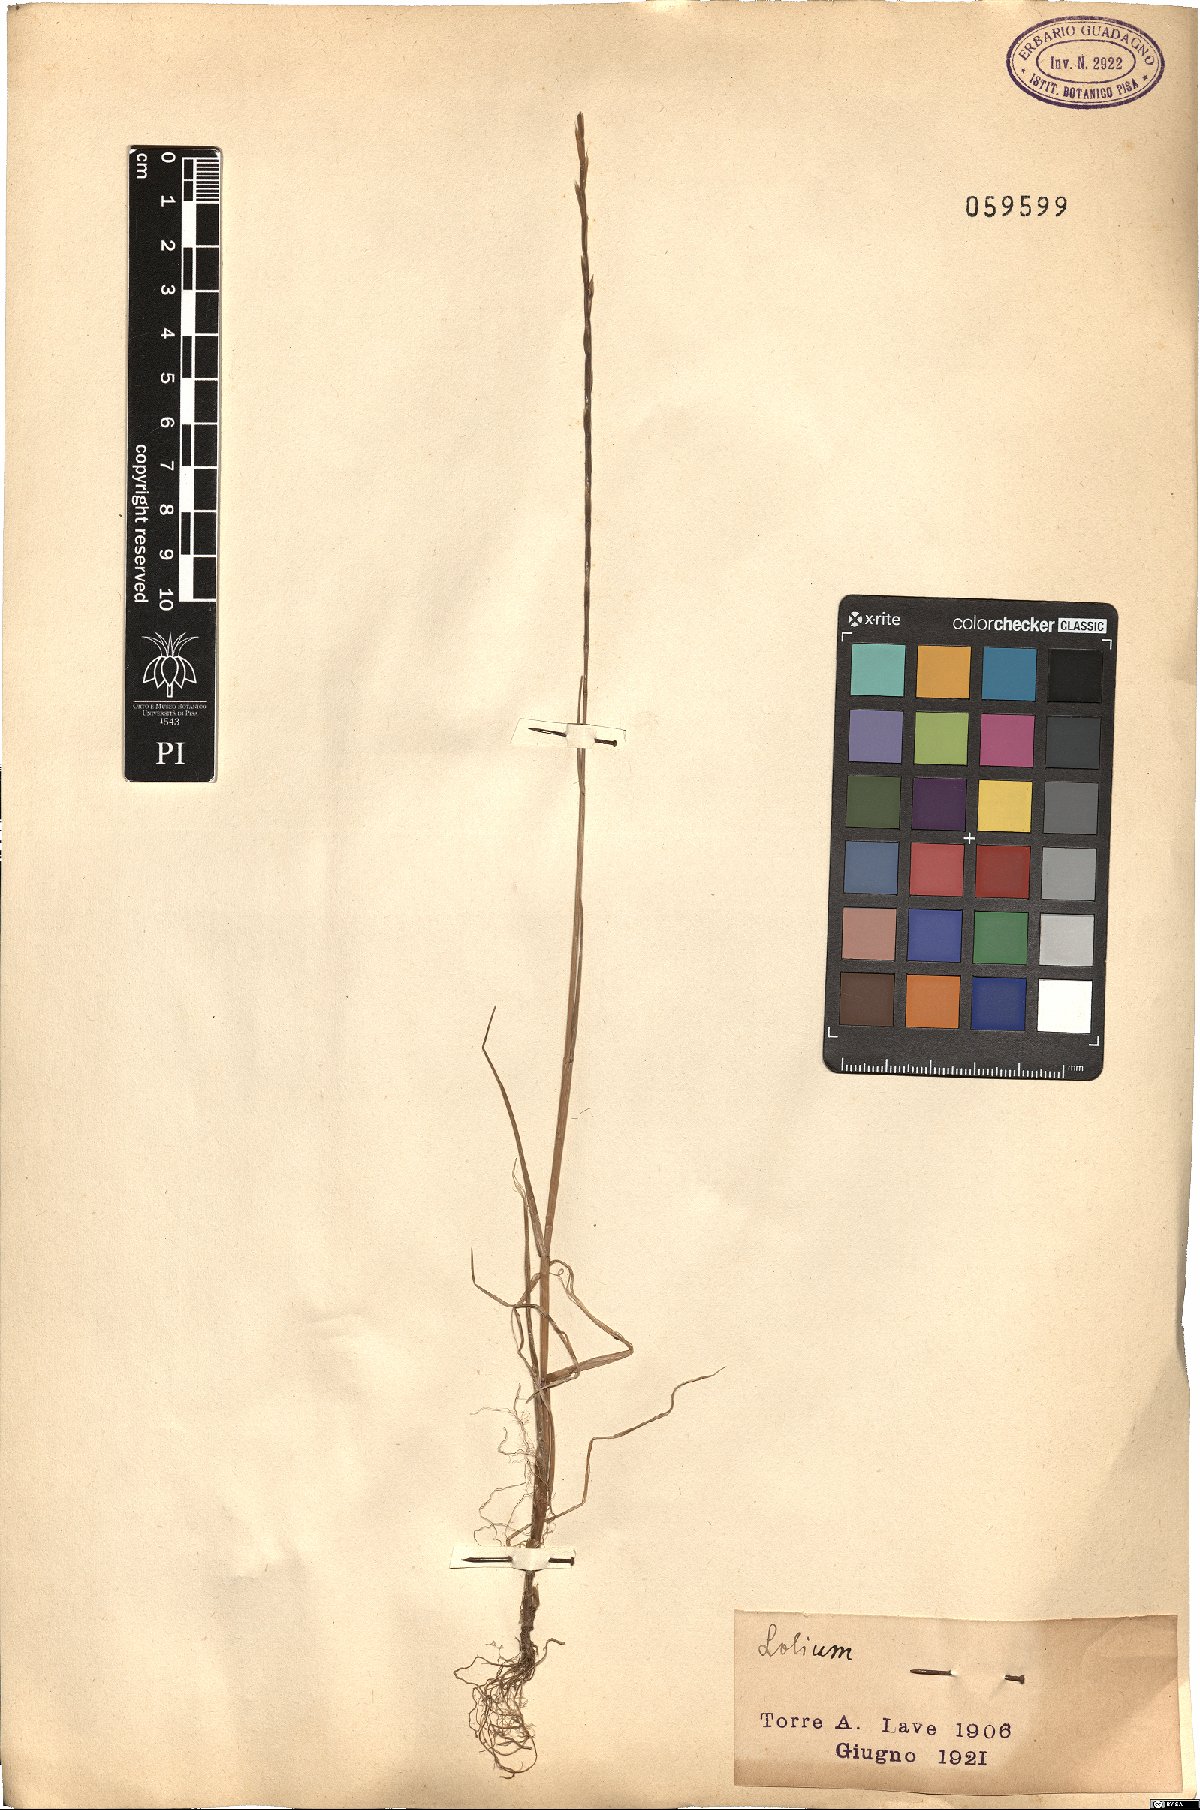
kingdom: Plantae
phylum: Tracheophyta
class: Liliopsida
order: Poales
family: Poaceae
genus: Lolium
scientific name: Lolium
